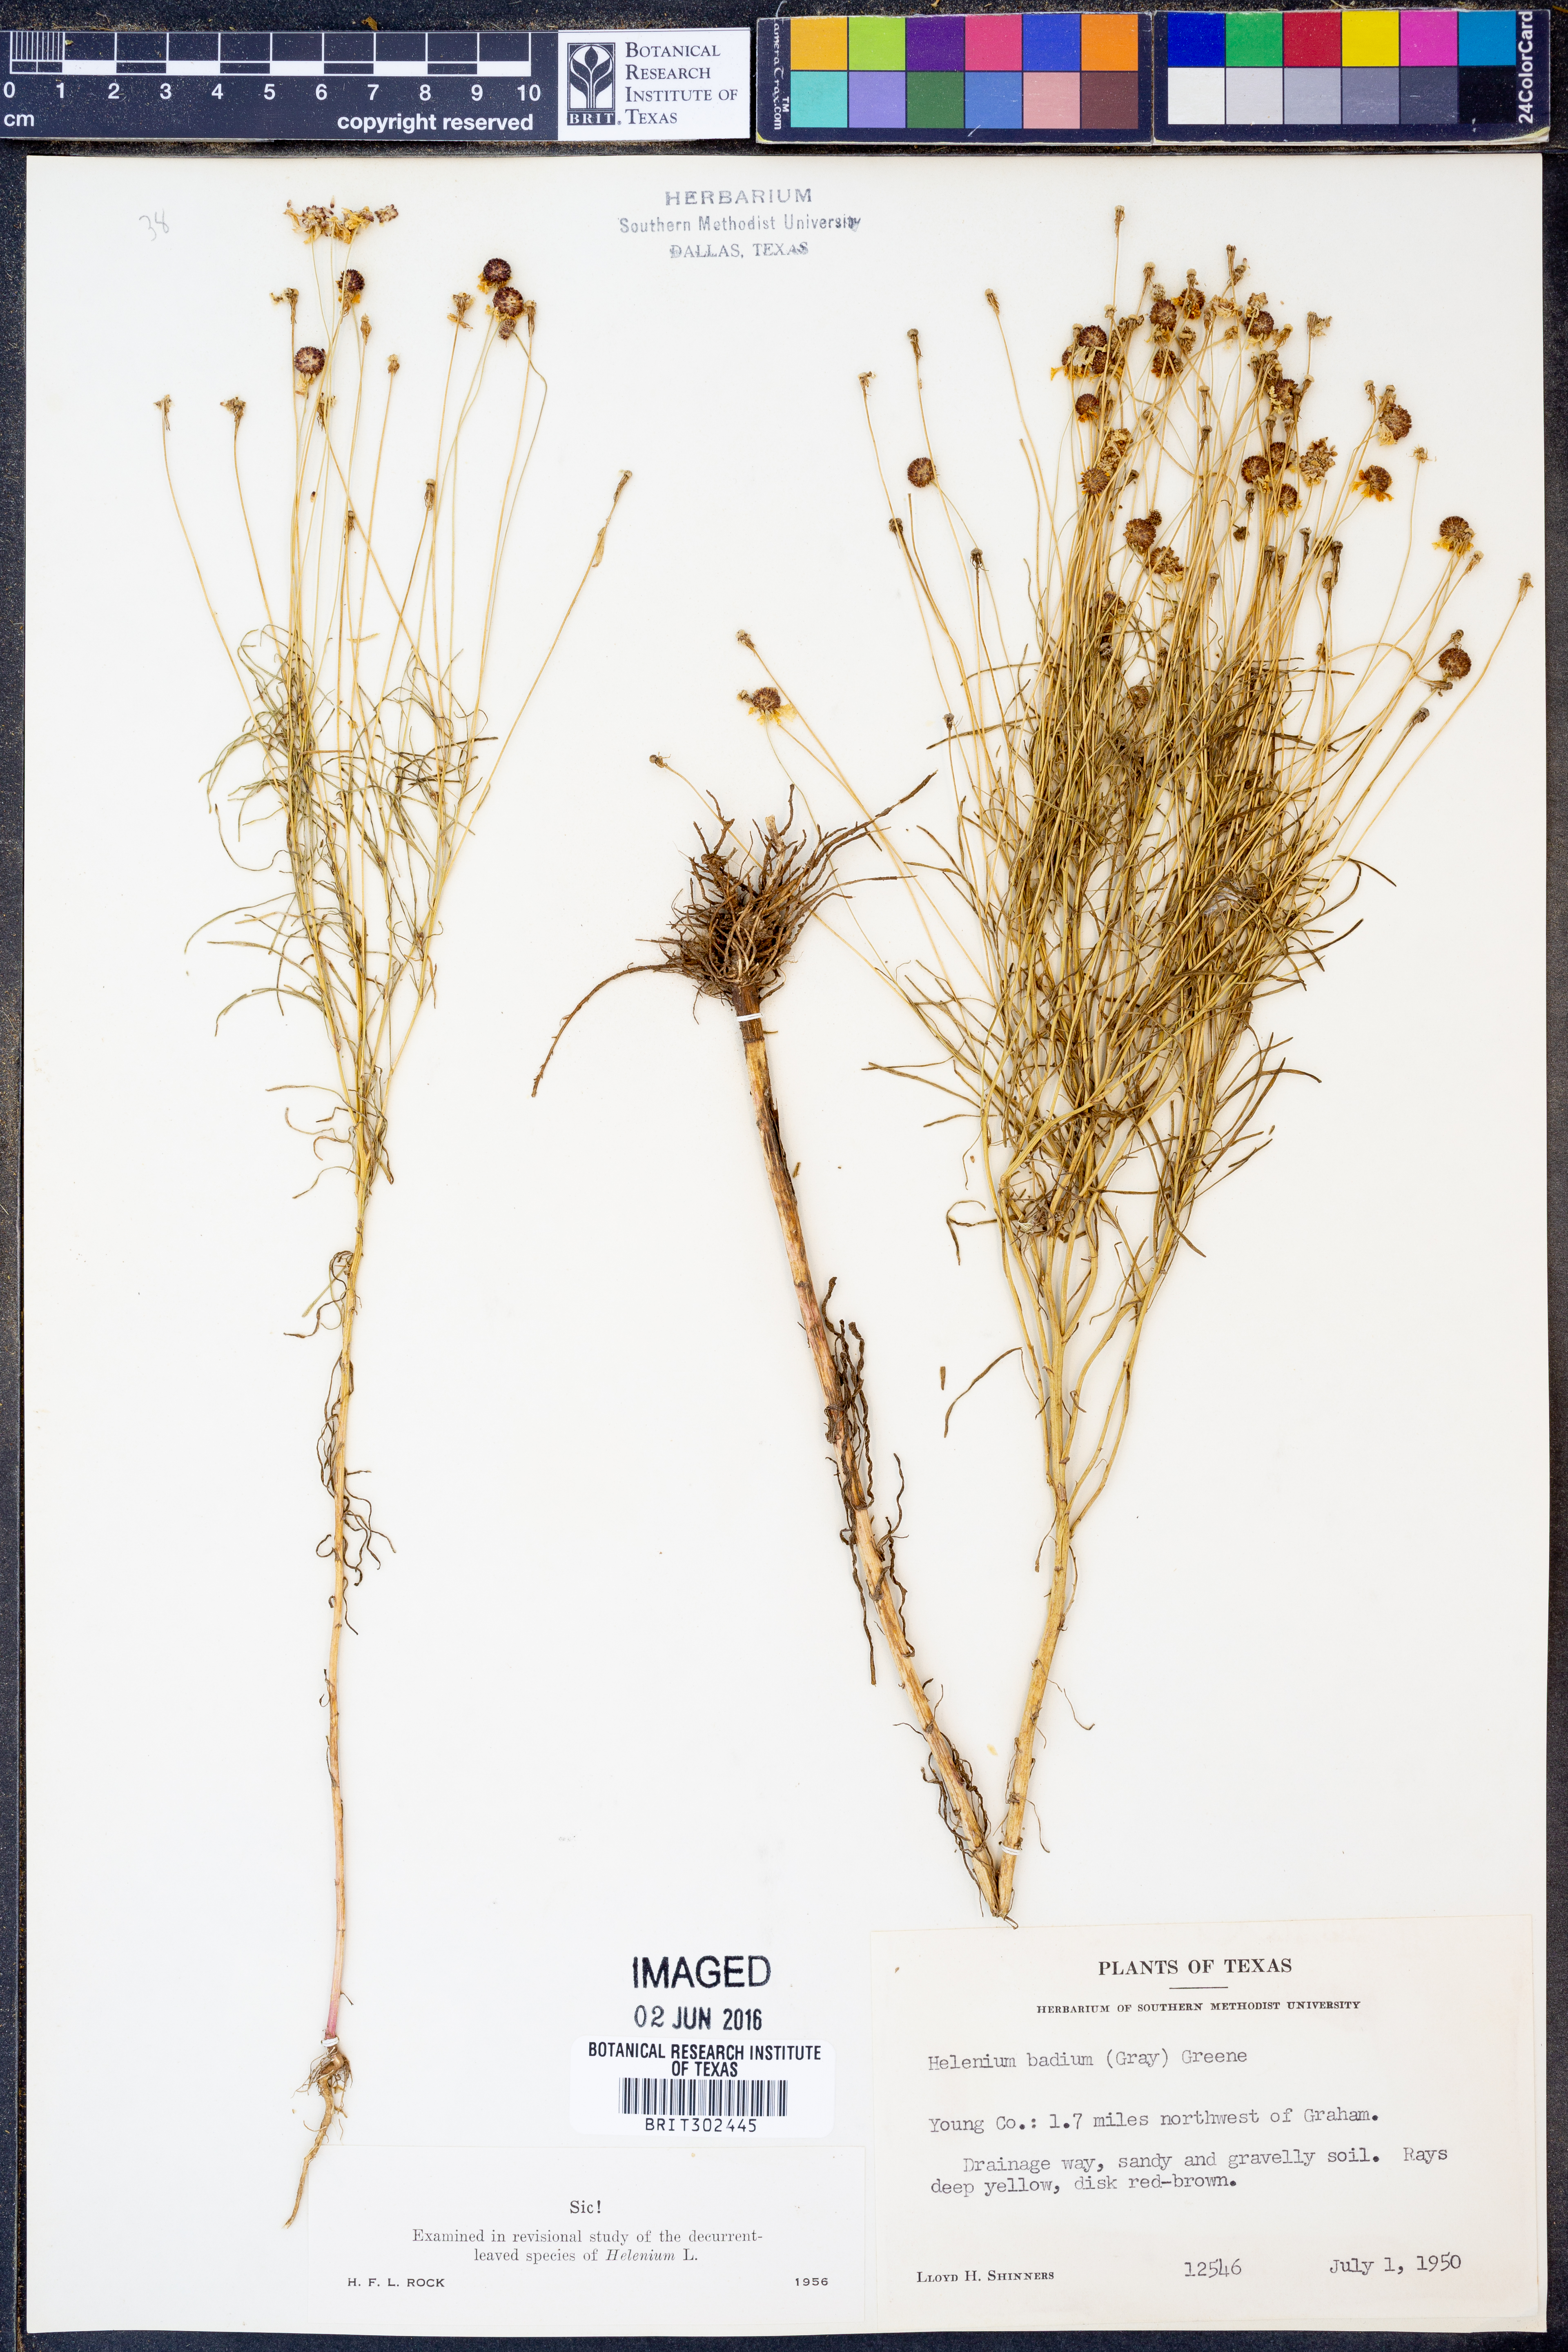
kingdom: Plantae
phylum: Tracheophyta
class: Magnoliopsida
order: Asterales
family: Asteraceae
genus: Helenium
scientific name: Helenium amarum
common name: Bitter sneezeweed
